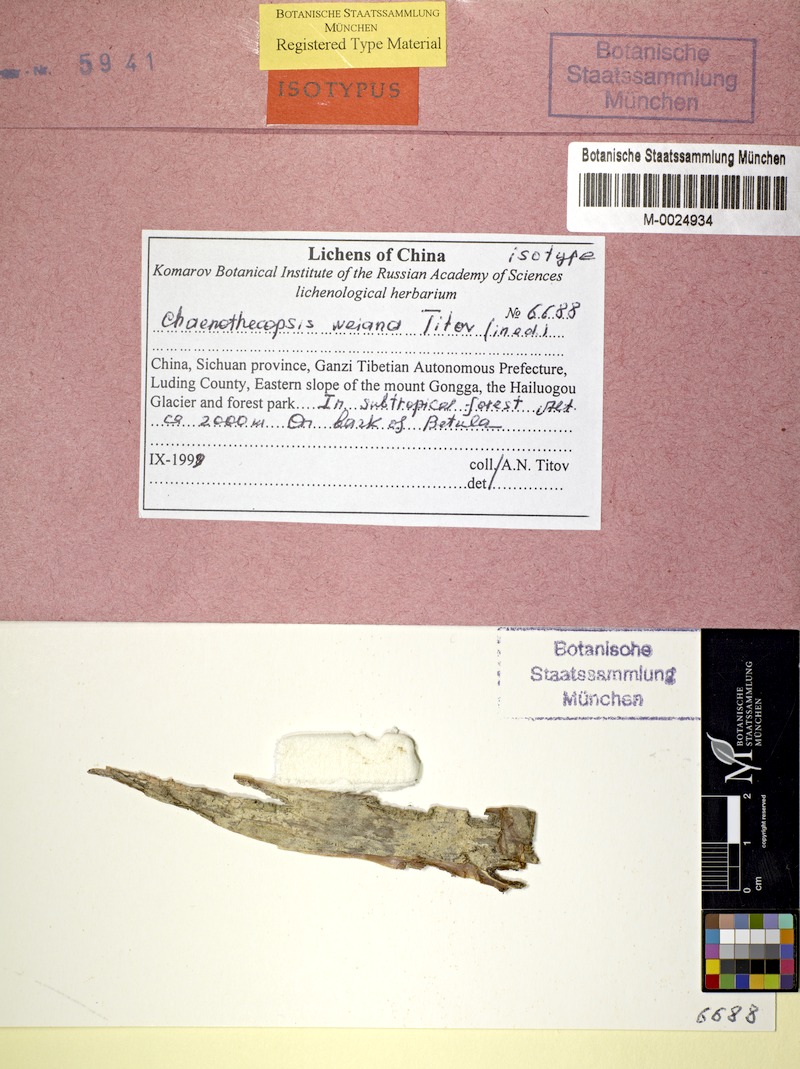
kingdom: Fungi
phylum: Ascomycota
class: Eurotiomycetes
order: Mycocaliciales
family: Mycocaliciaceae
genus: Chaenothecopsis
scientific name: Chaenothecopsis weiana
